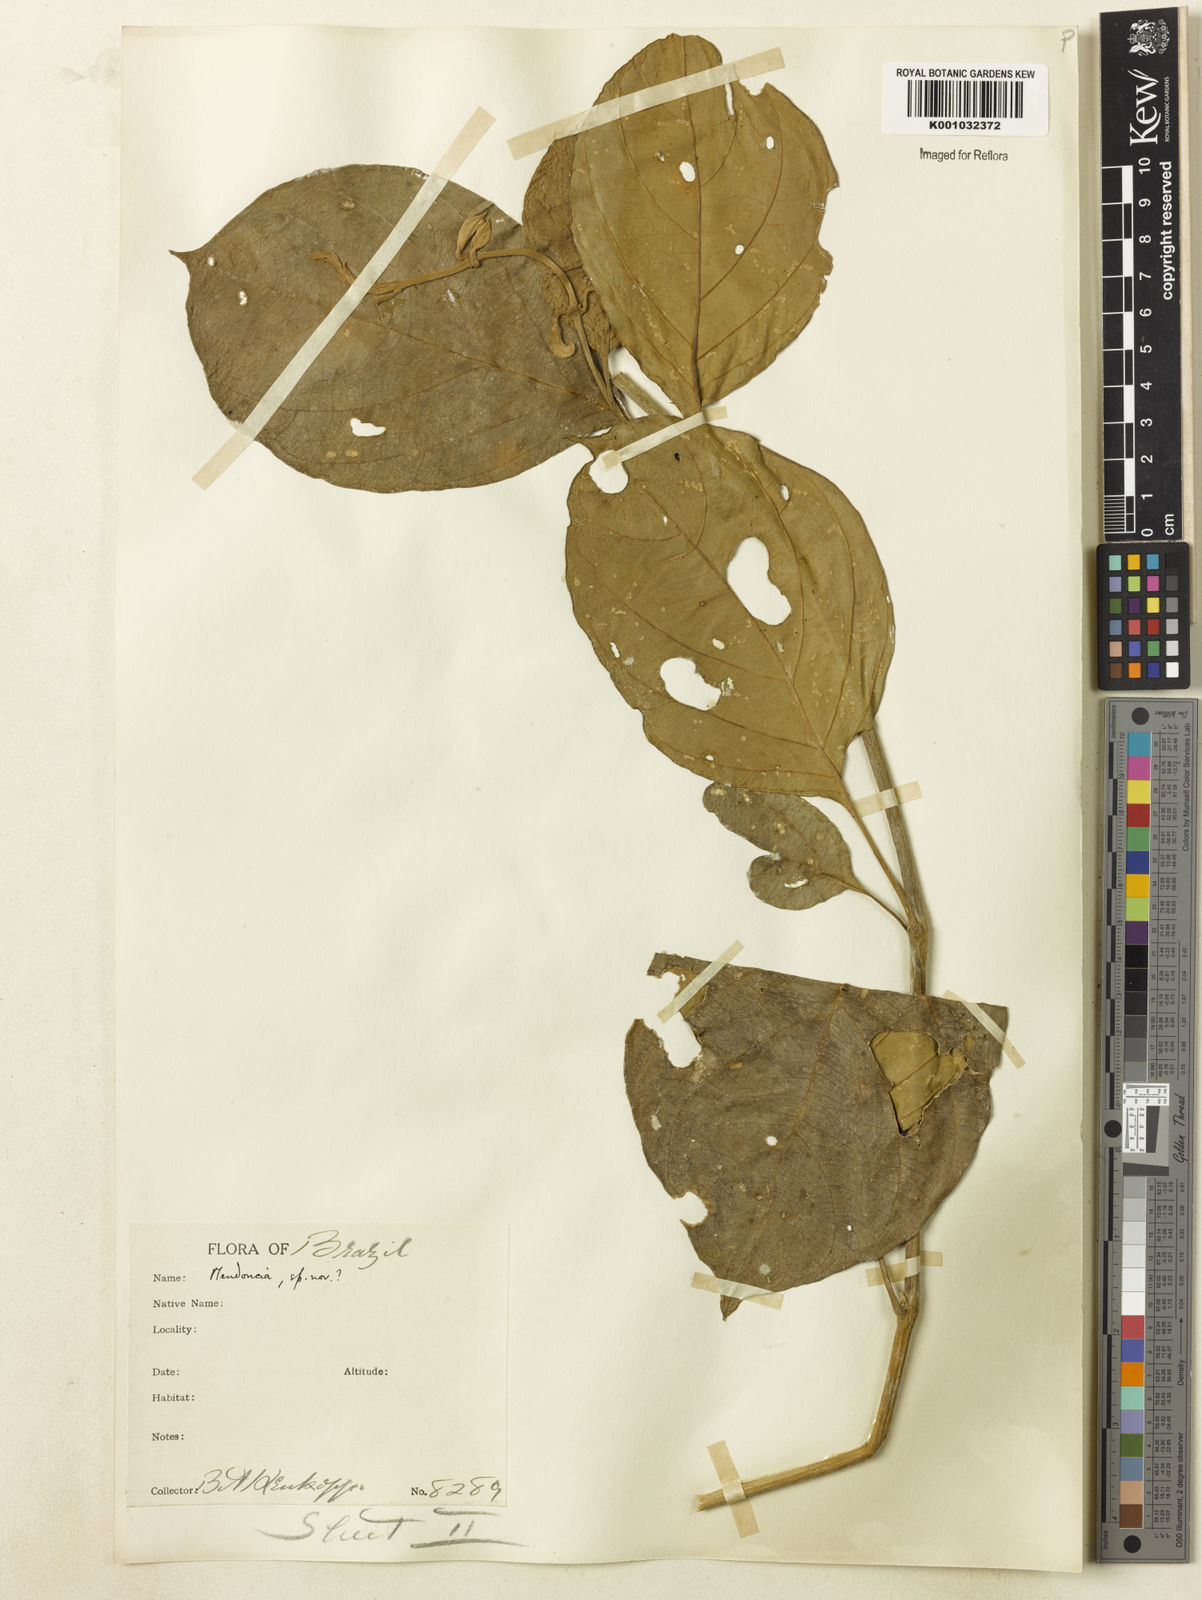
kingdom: Plantae
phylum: Tracheophyta
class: Magnoliopsida
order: Lamiales
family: Acanthaceae
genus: Mendoncia
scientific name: Mendoncia
